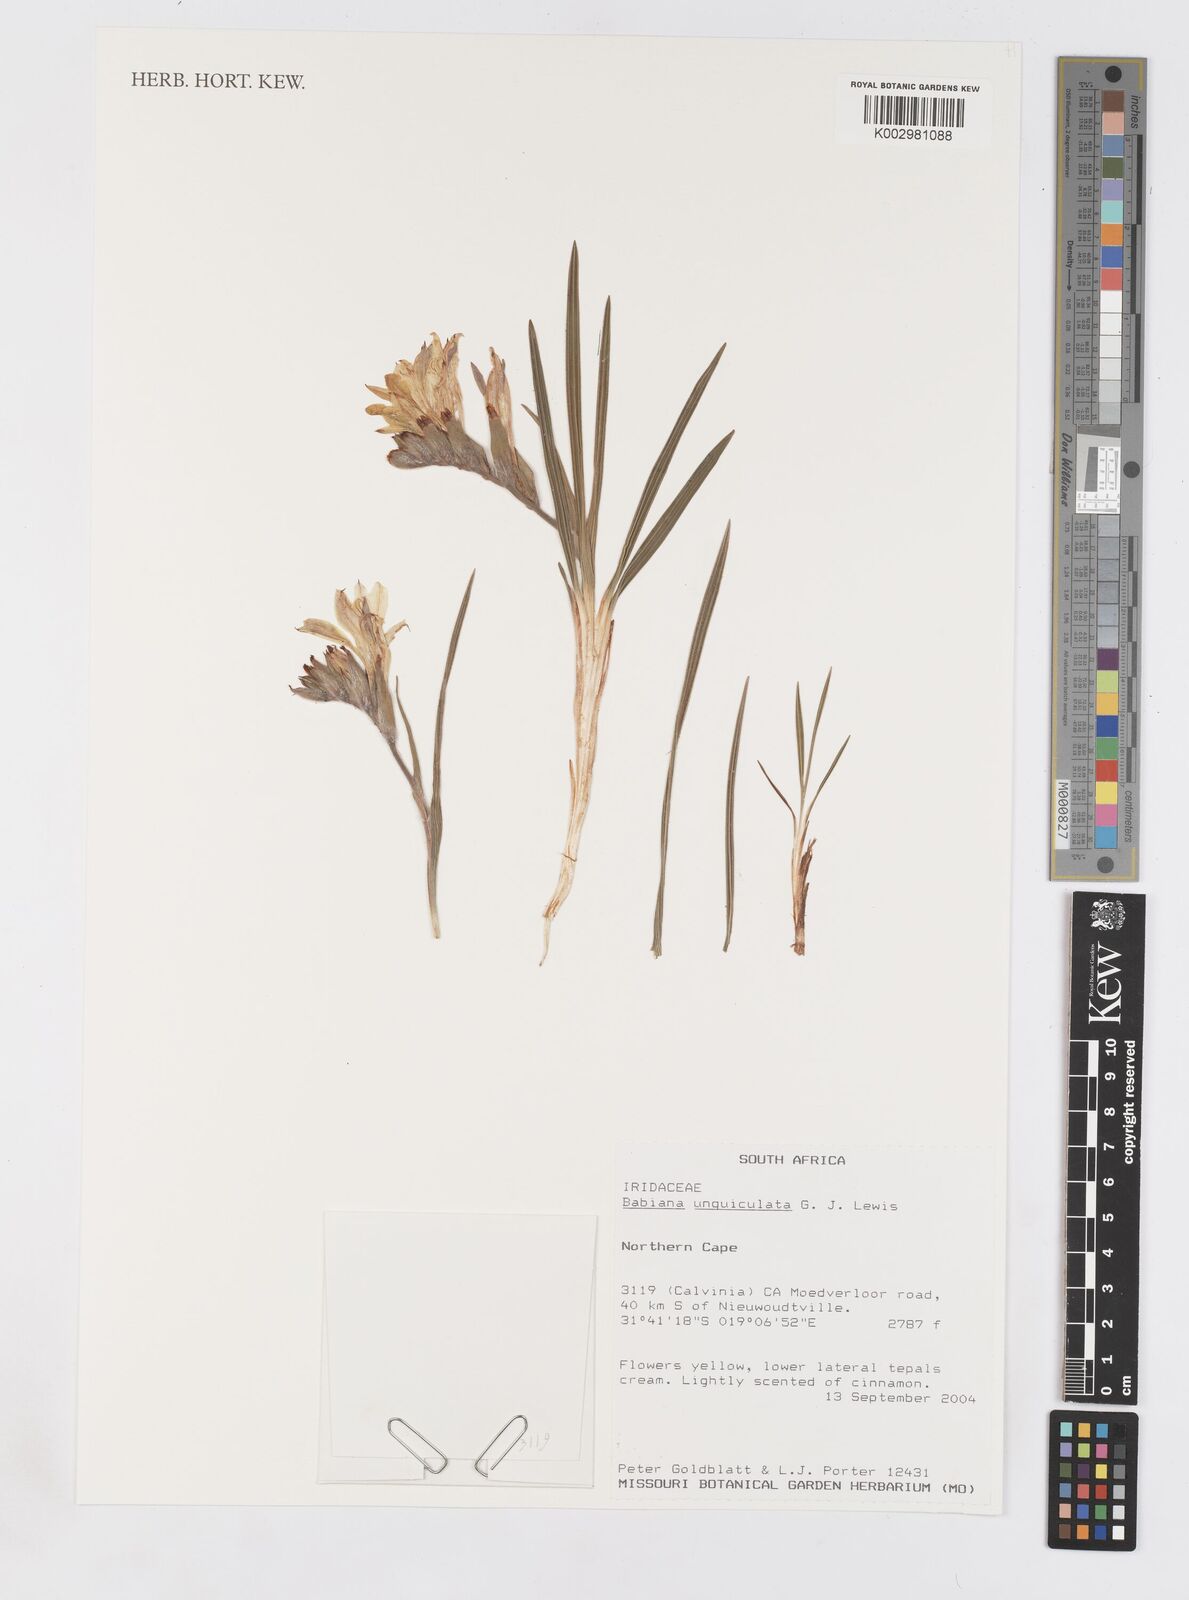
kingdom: Plantae
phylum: Tracheophyta
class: Liliopsida
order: Asparagales
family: Iridaceae
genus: Babiana
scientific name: Babiana unguiculata
